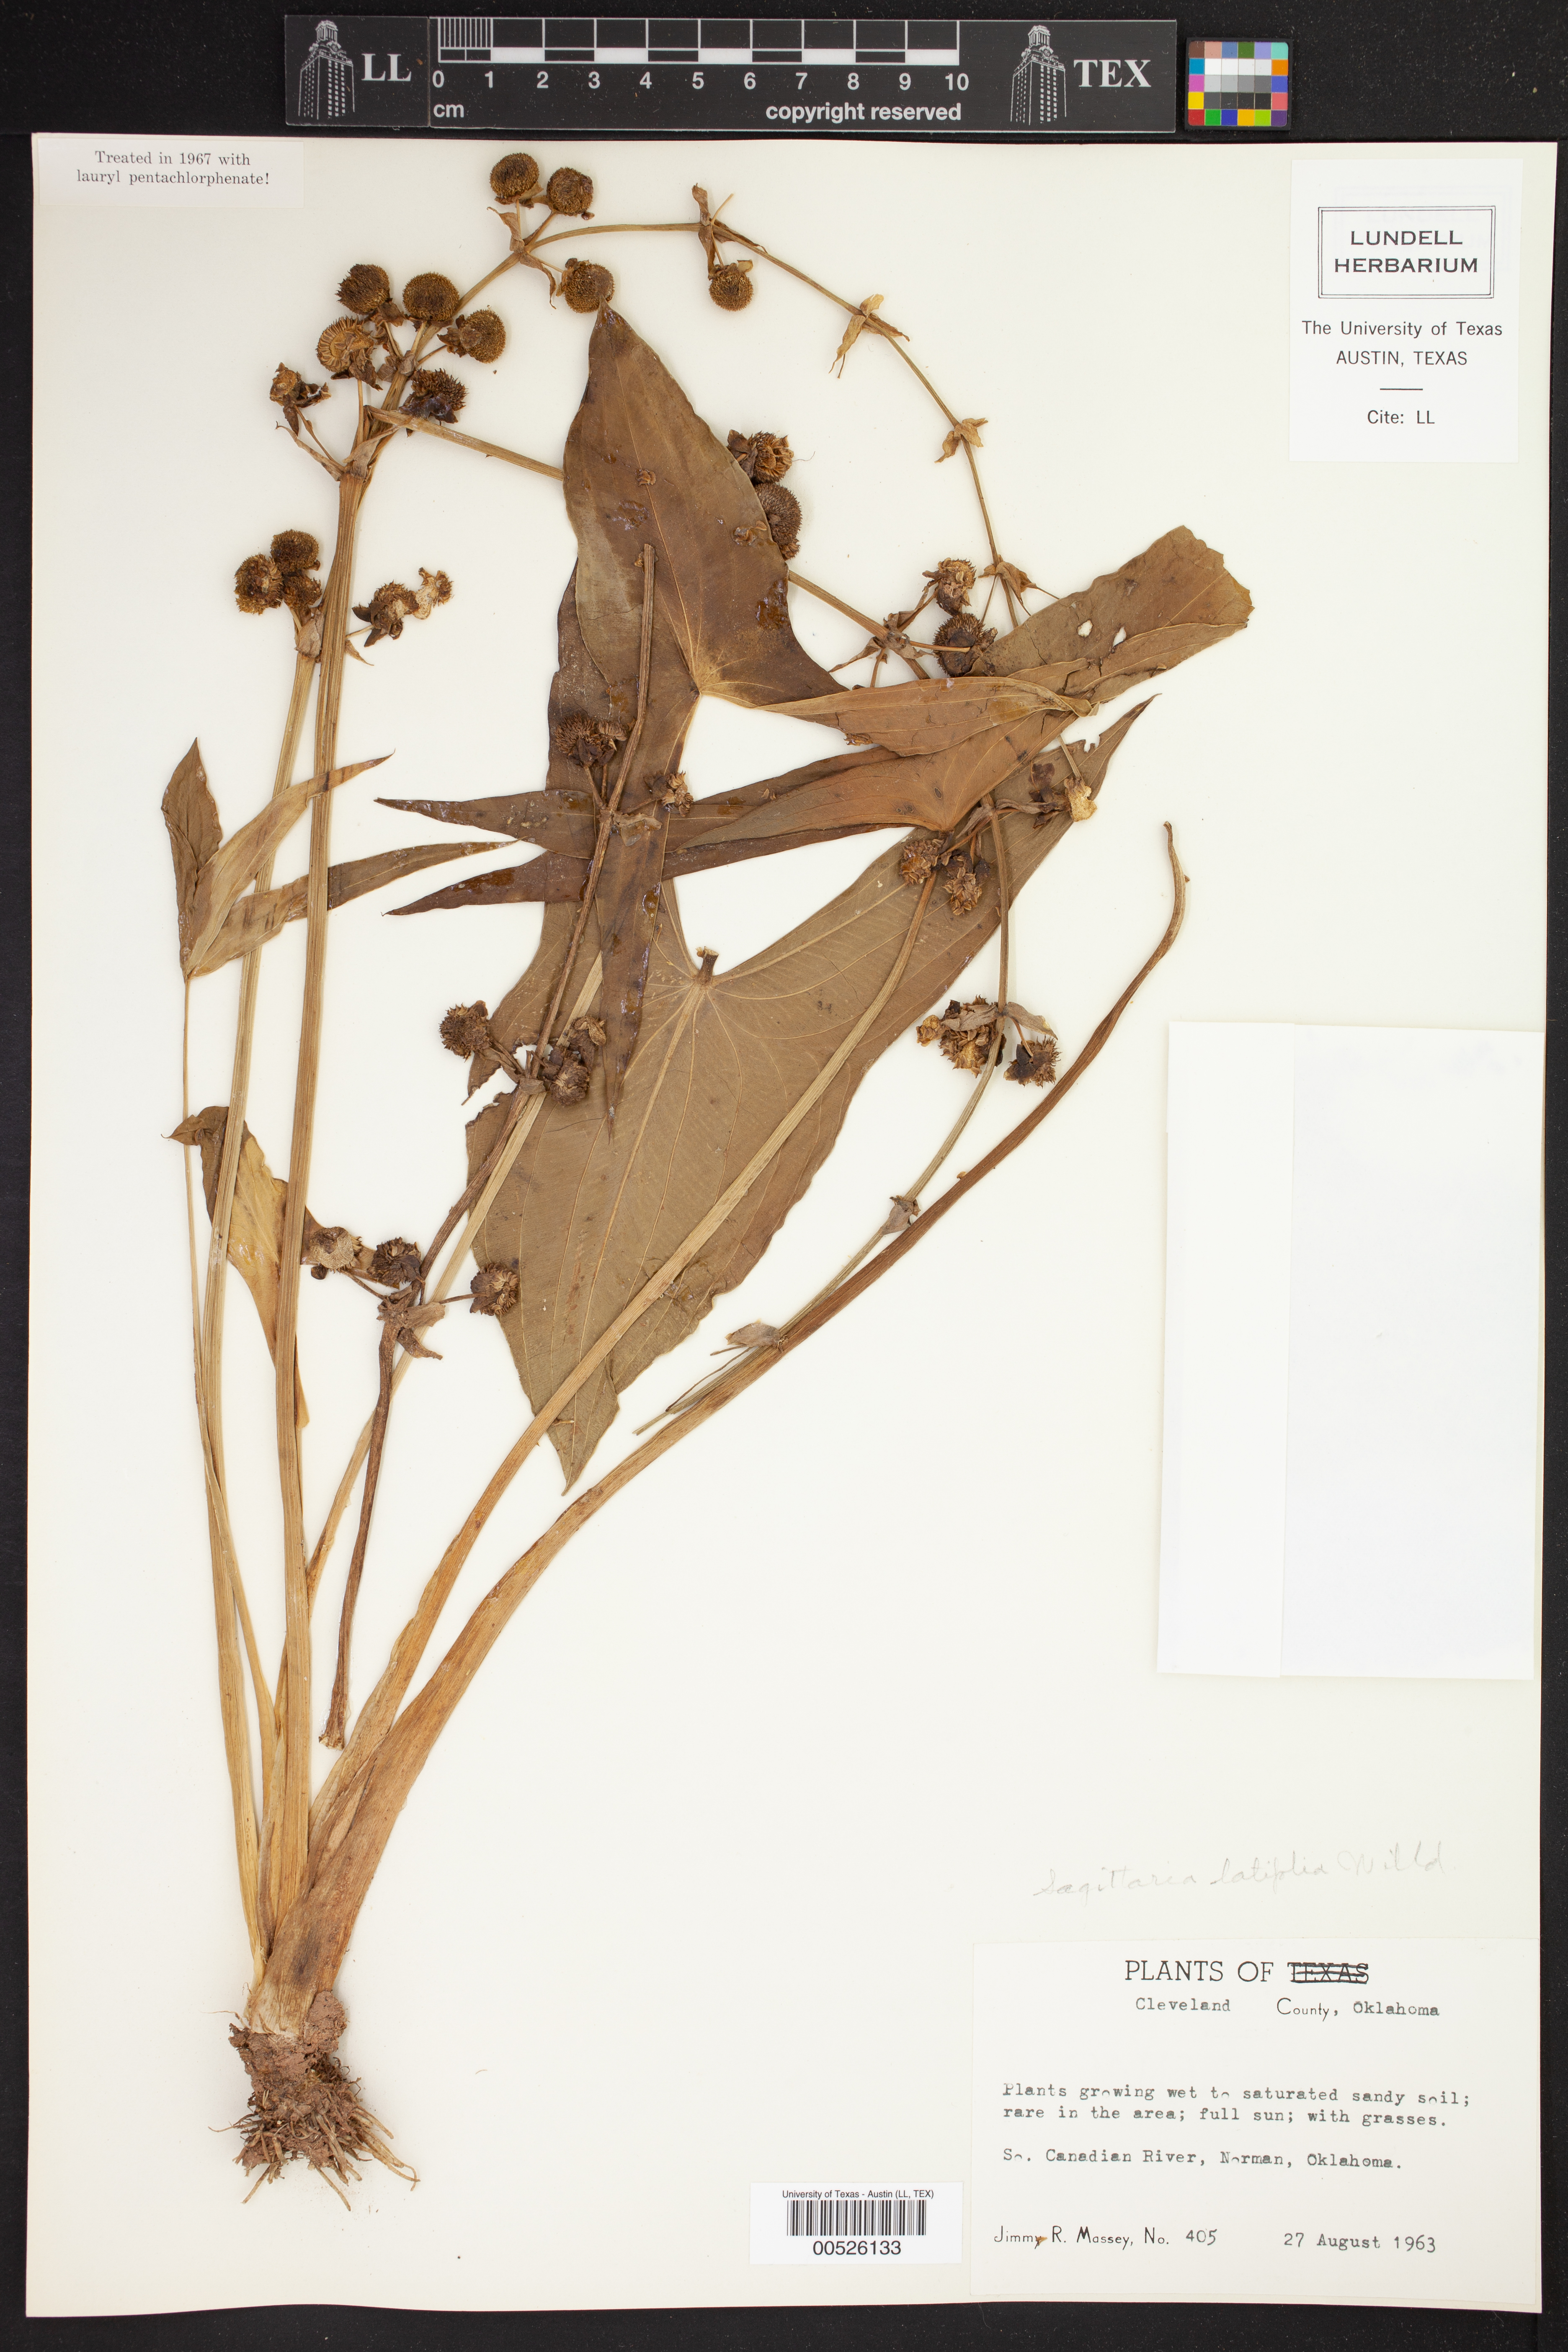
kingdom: Plantae
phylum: Tracheophyta
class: Liliopsida
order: Alismatales
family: Alismataceae
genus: Sagittaria
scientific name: Sagittaria latifolia
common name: Duck-potato
